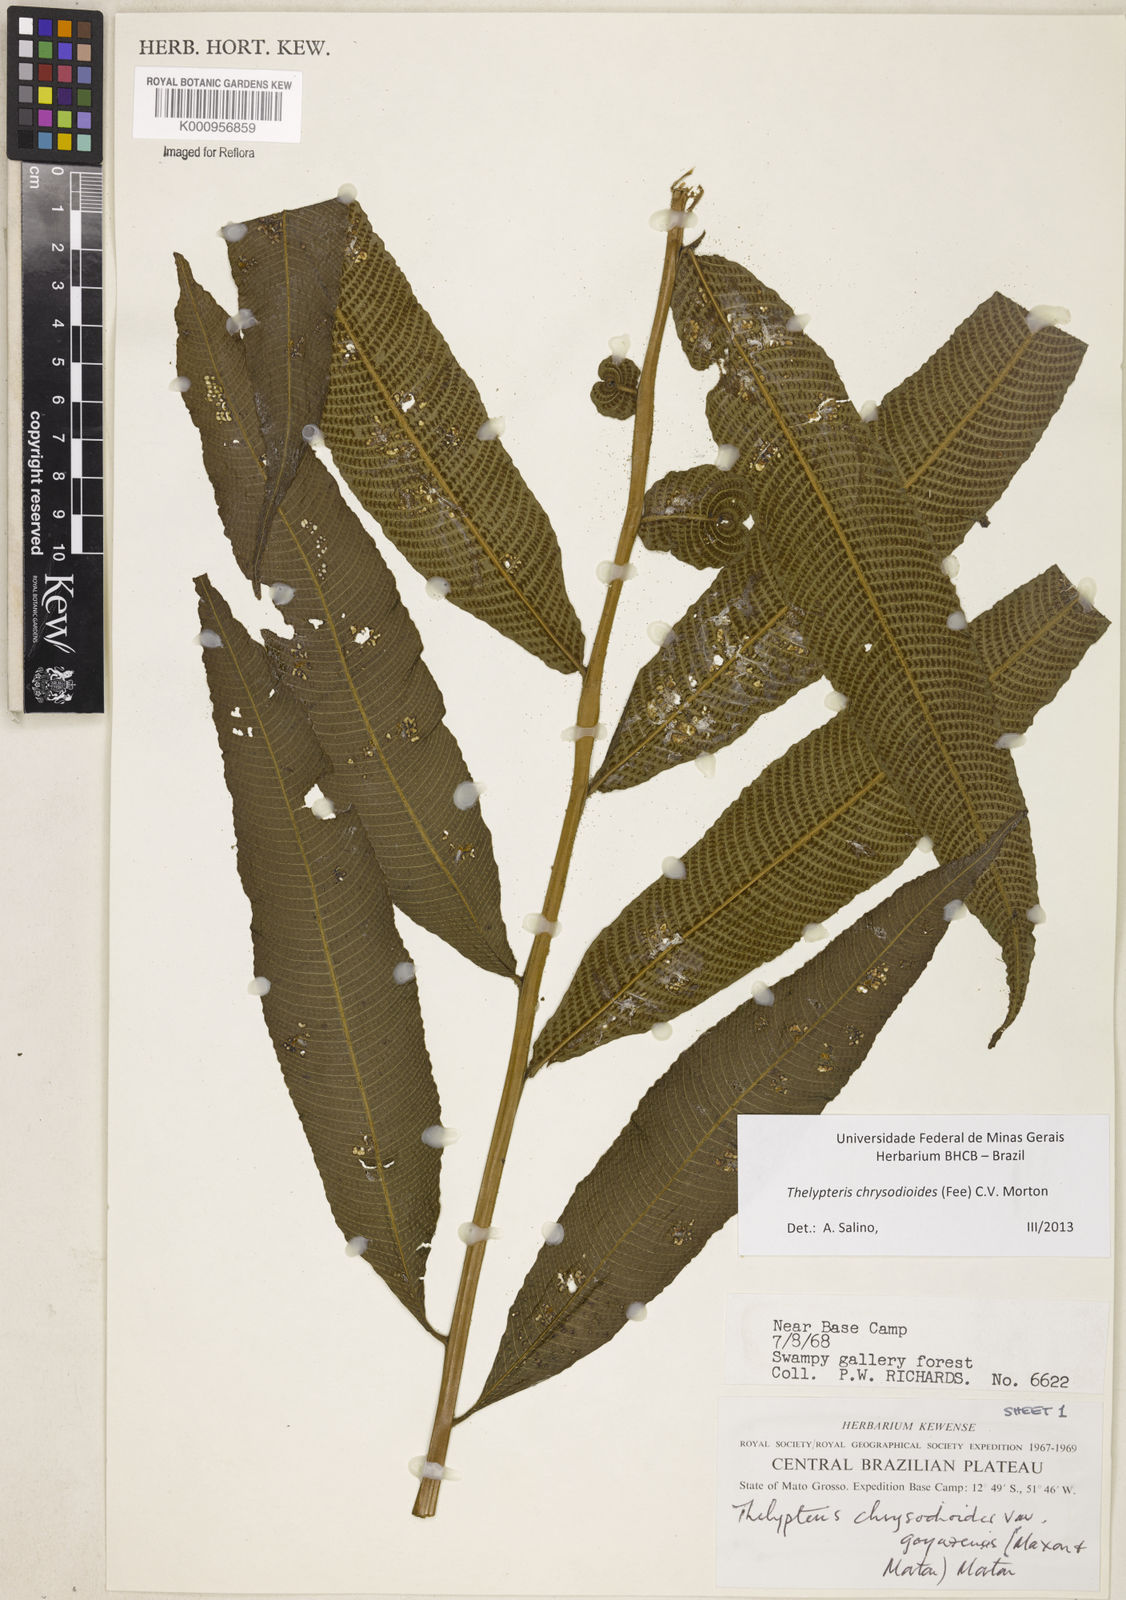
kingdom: Plantae
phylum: Tracheophyta
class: Polypodiopsida
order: Polypodiales
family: Thelypteridaceae
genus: Meniscium
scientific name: Meniscium
